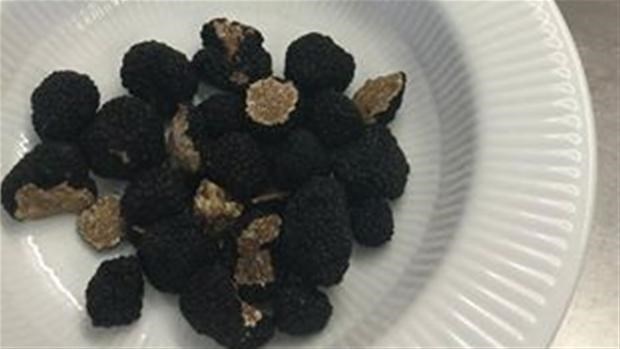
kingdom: Fungi
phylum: Ascomycota
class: Pezizomycetes
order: Pezizales
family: Tuberaceae
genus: Tuber
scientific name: Tuber aestivum
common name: sommer-trøffel
